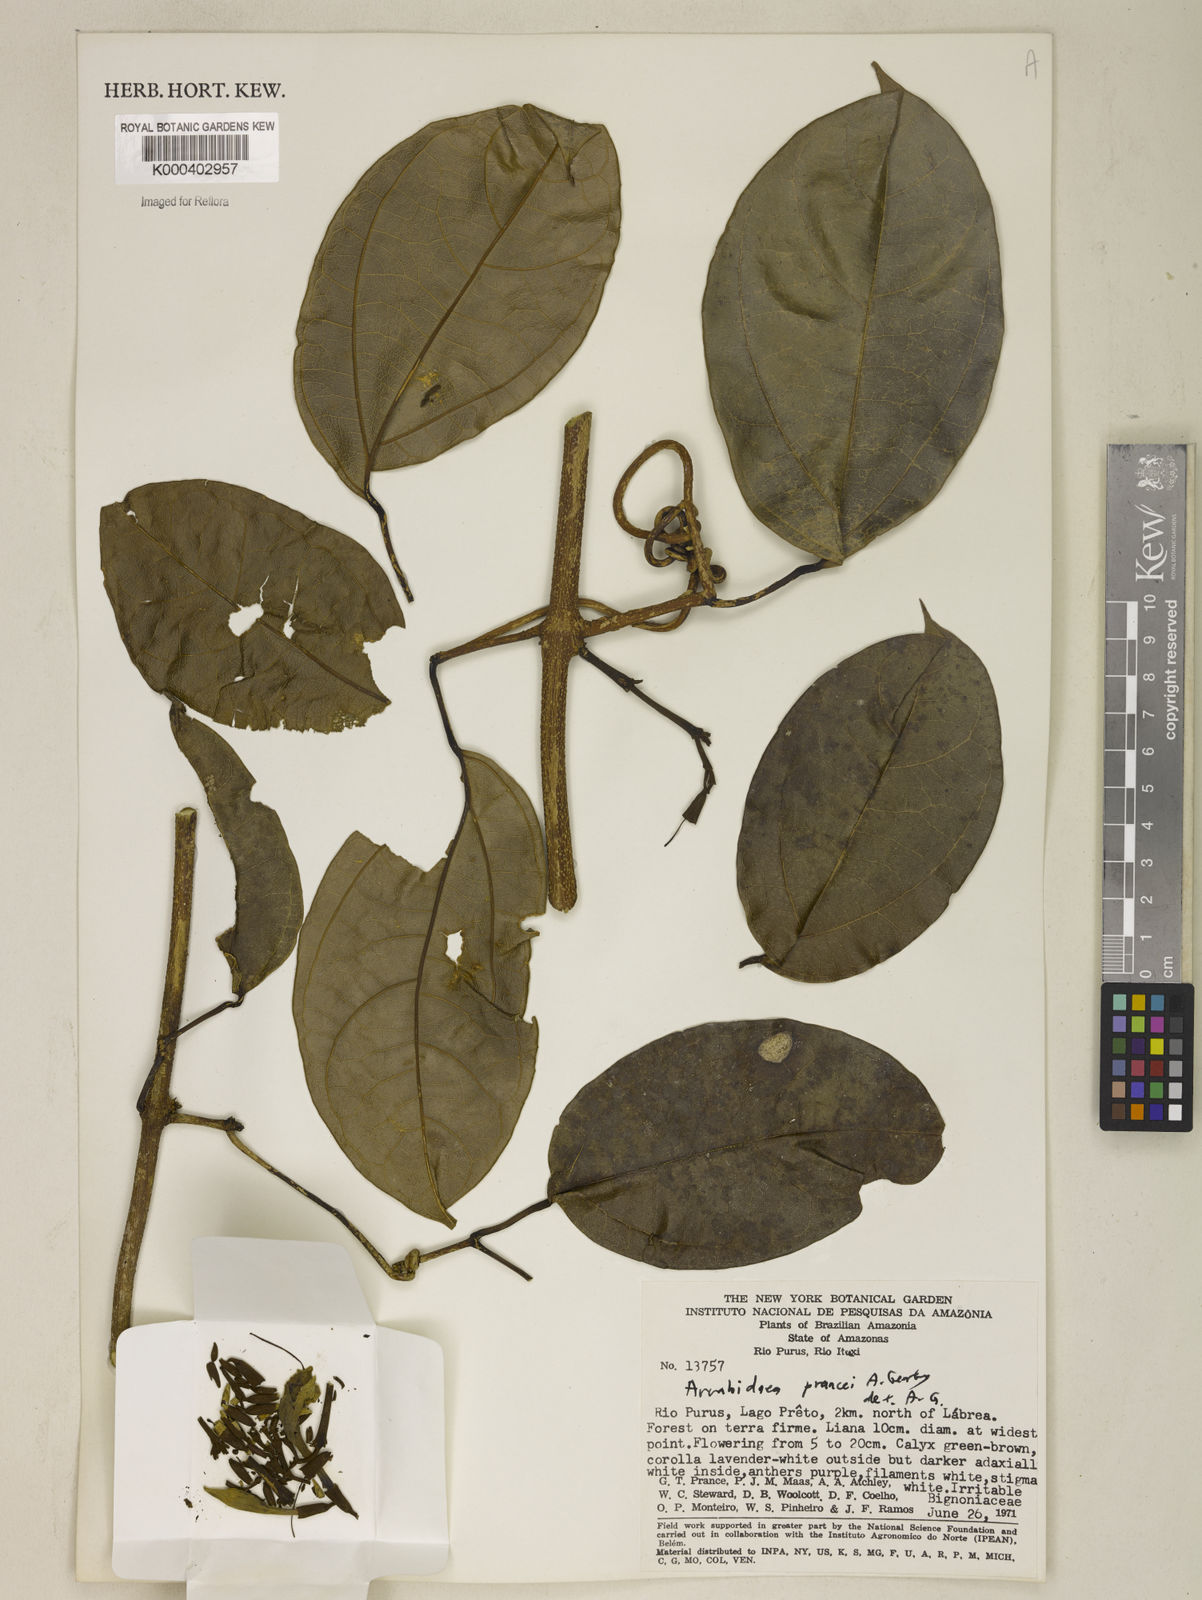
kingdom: Plantae
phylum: Tracheophyta
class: Magnoliopsida
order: Lamiales
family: Bignoniaceae
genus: Fridericia
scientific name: Fridericia prancei
